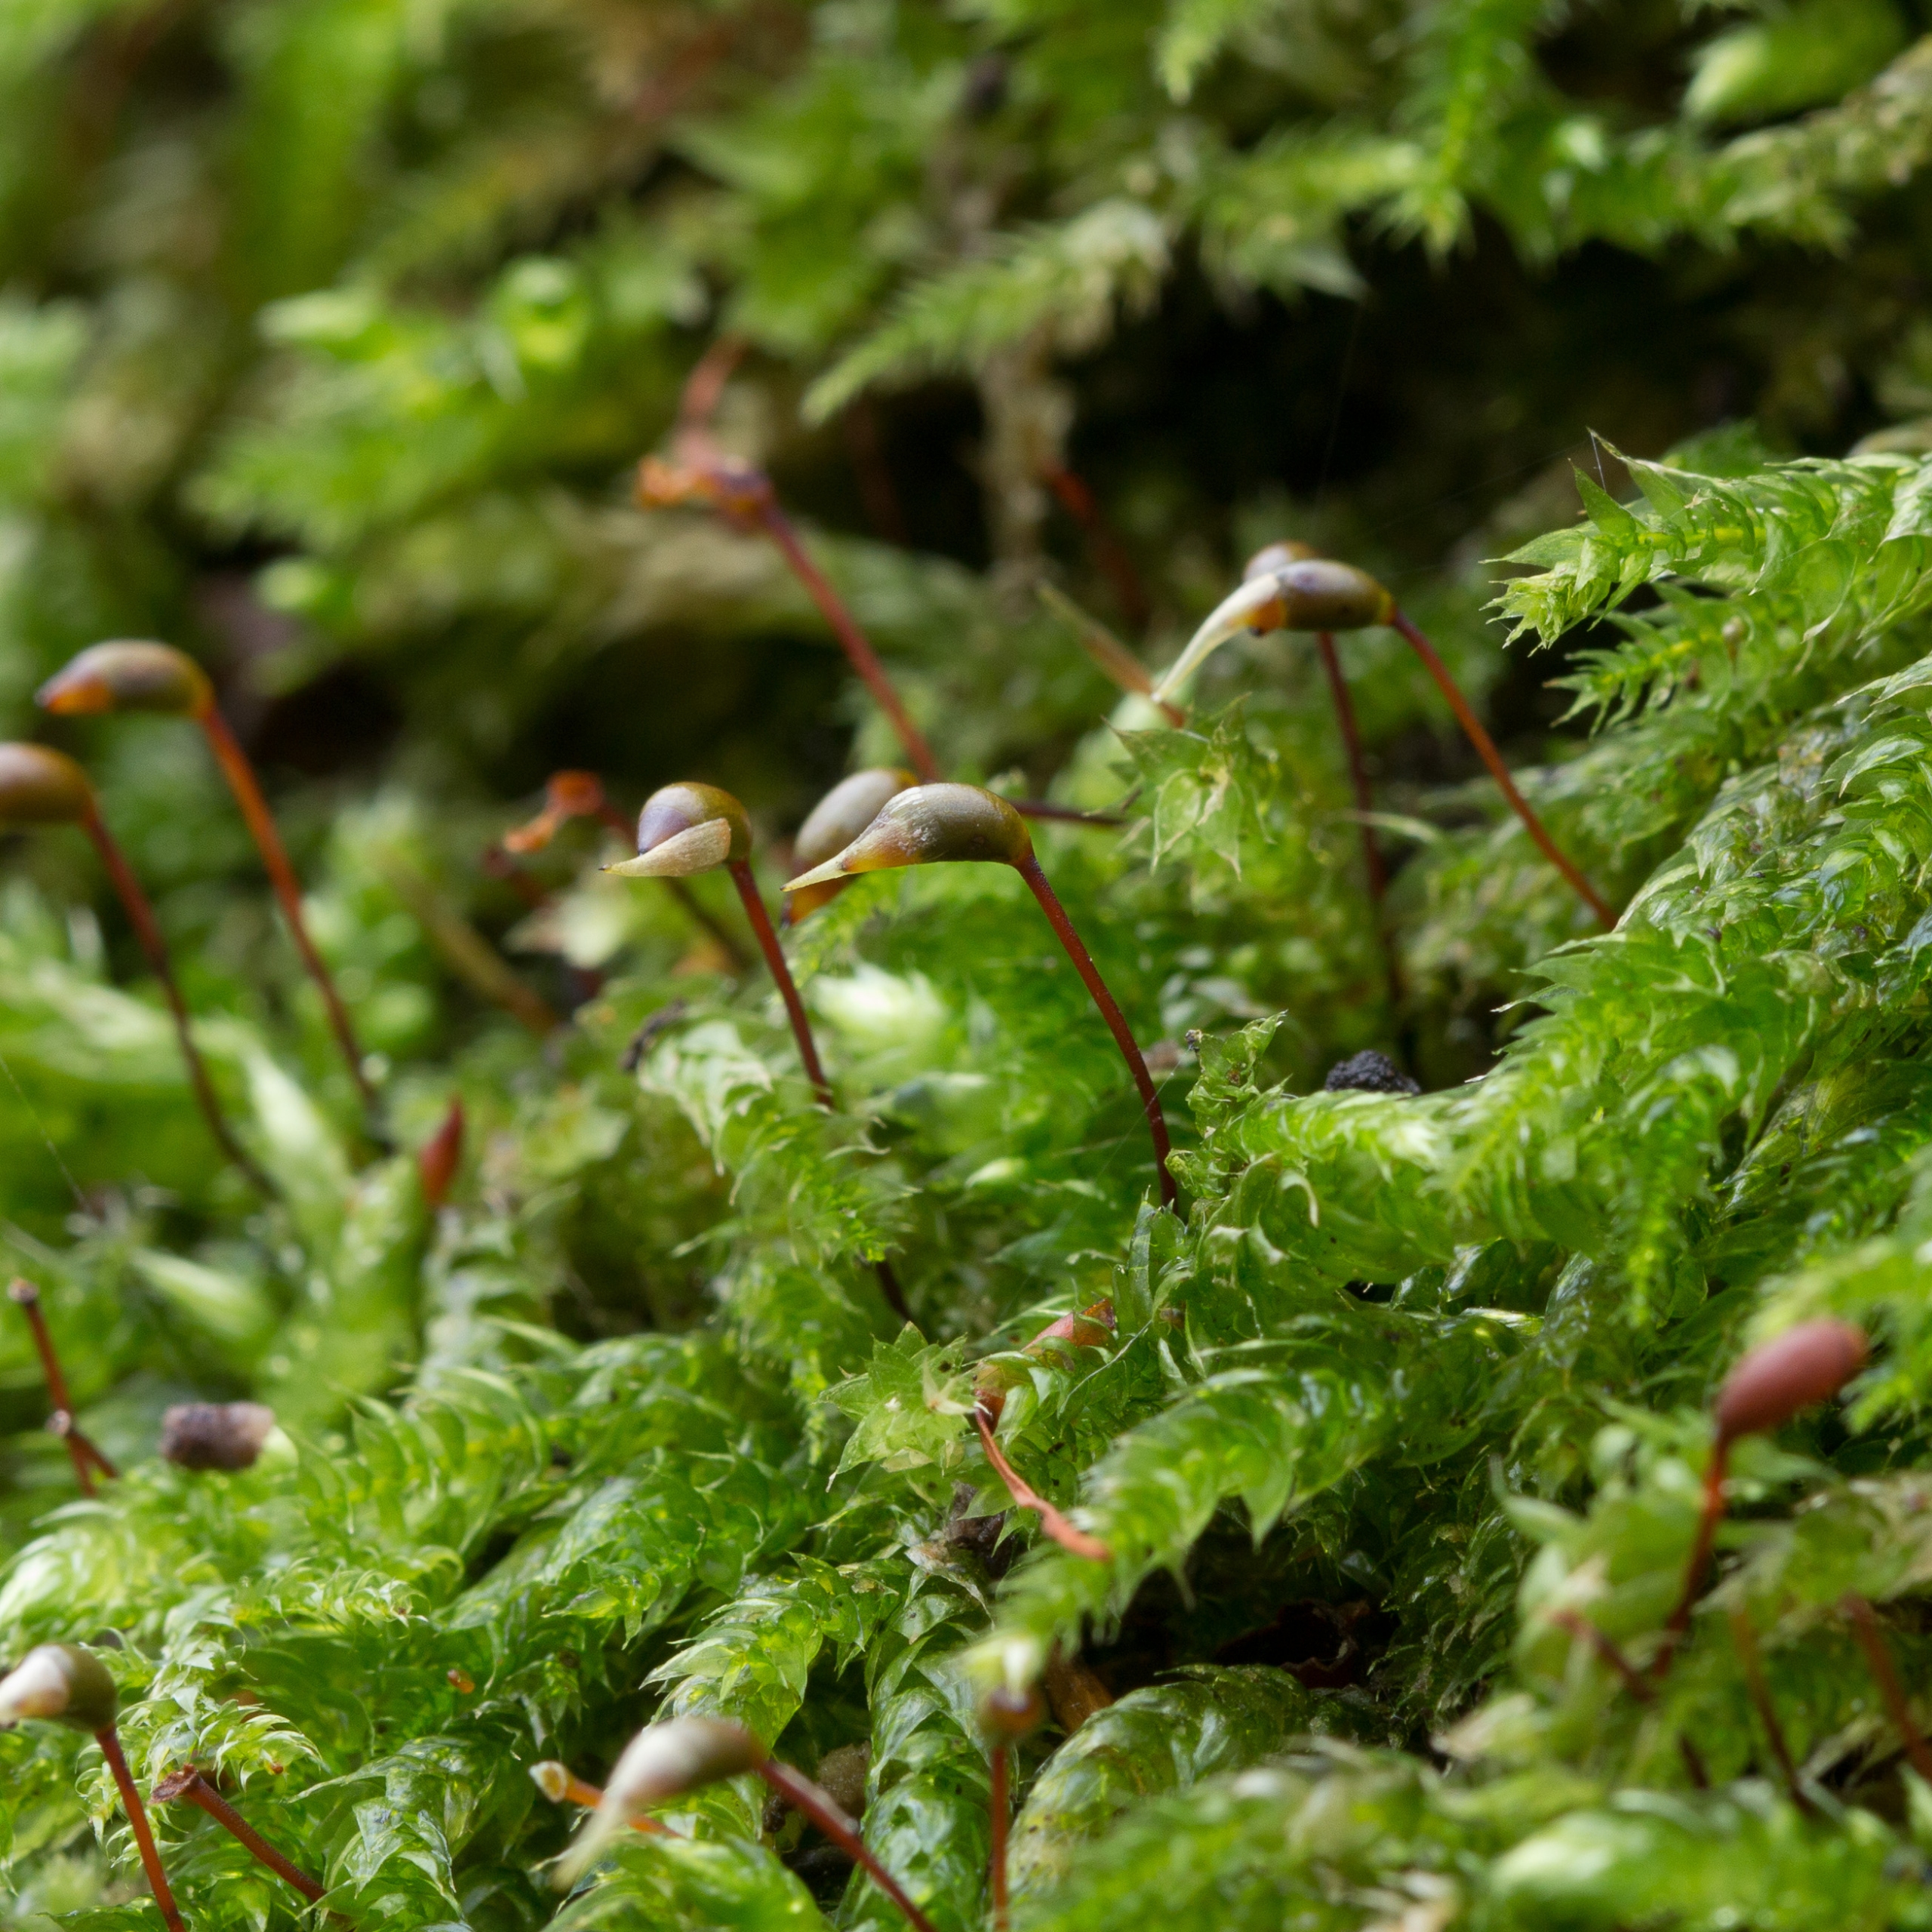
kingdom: Plantae
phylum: Bryophyta
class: Bryopsida
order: Hypnales
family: Brachytheciaceae
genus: Brachythecium
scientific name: Brachythecium rutabulum
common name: Almindelig kortkapsel
